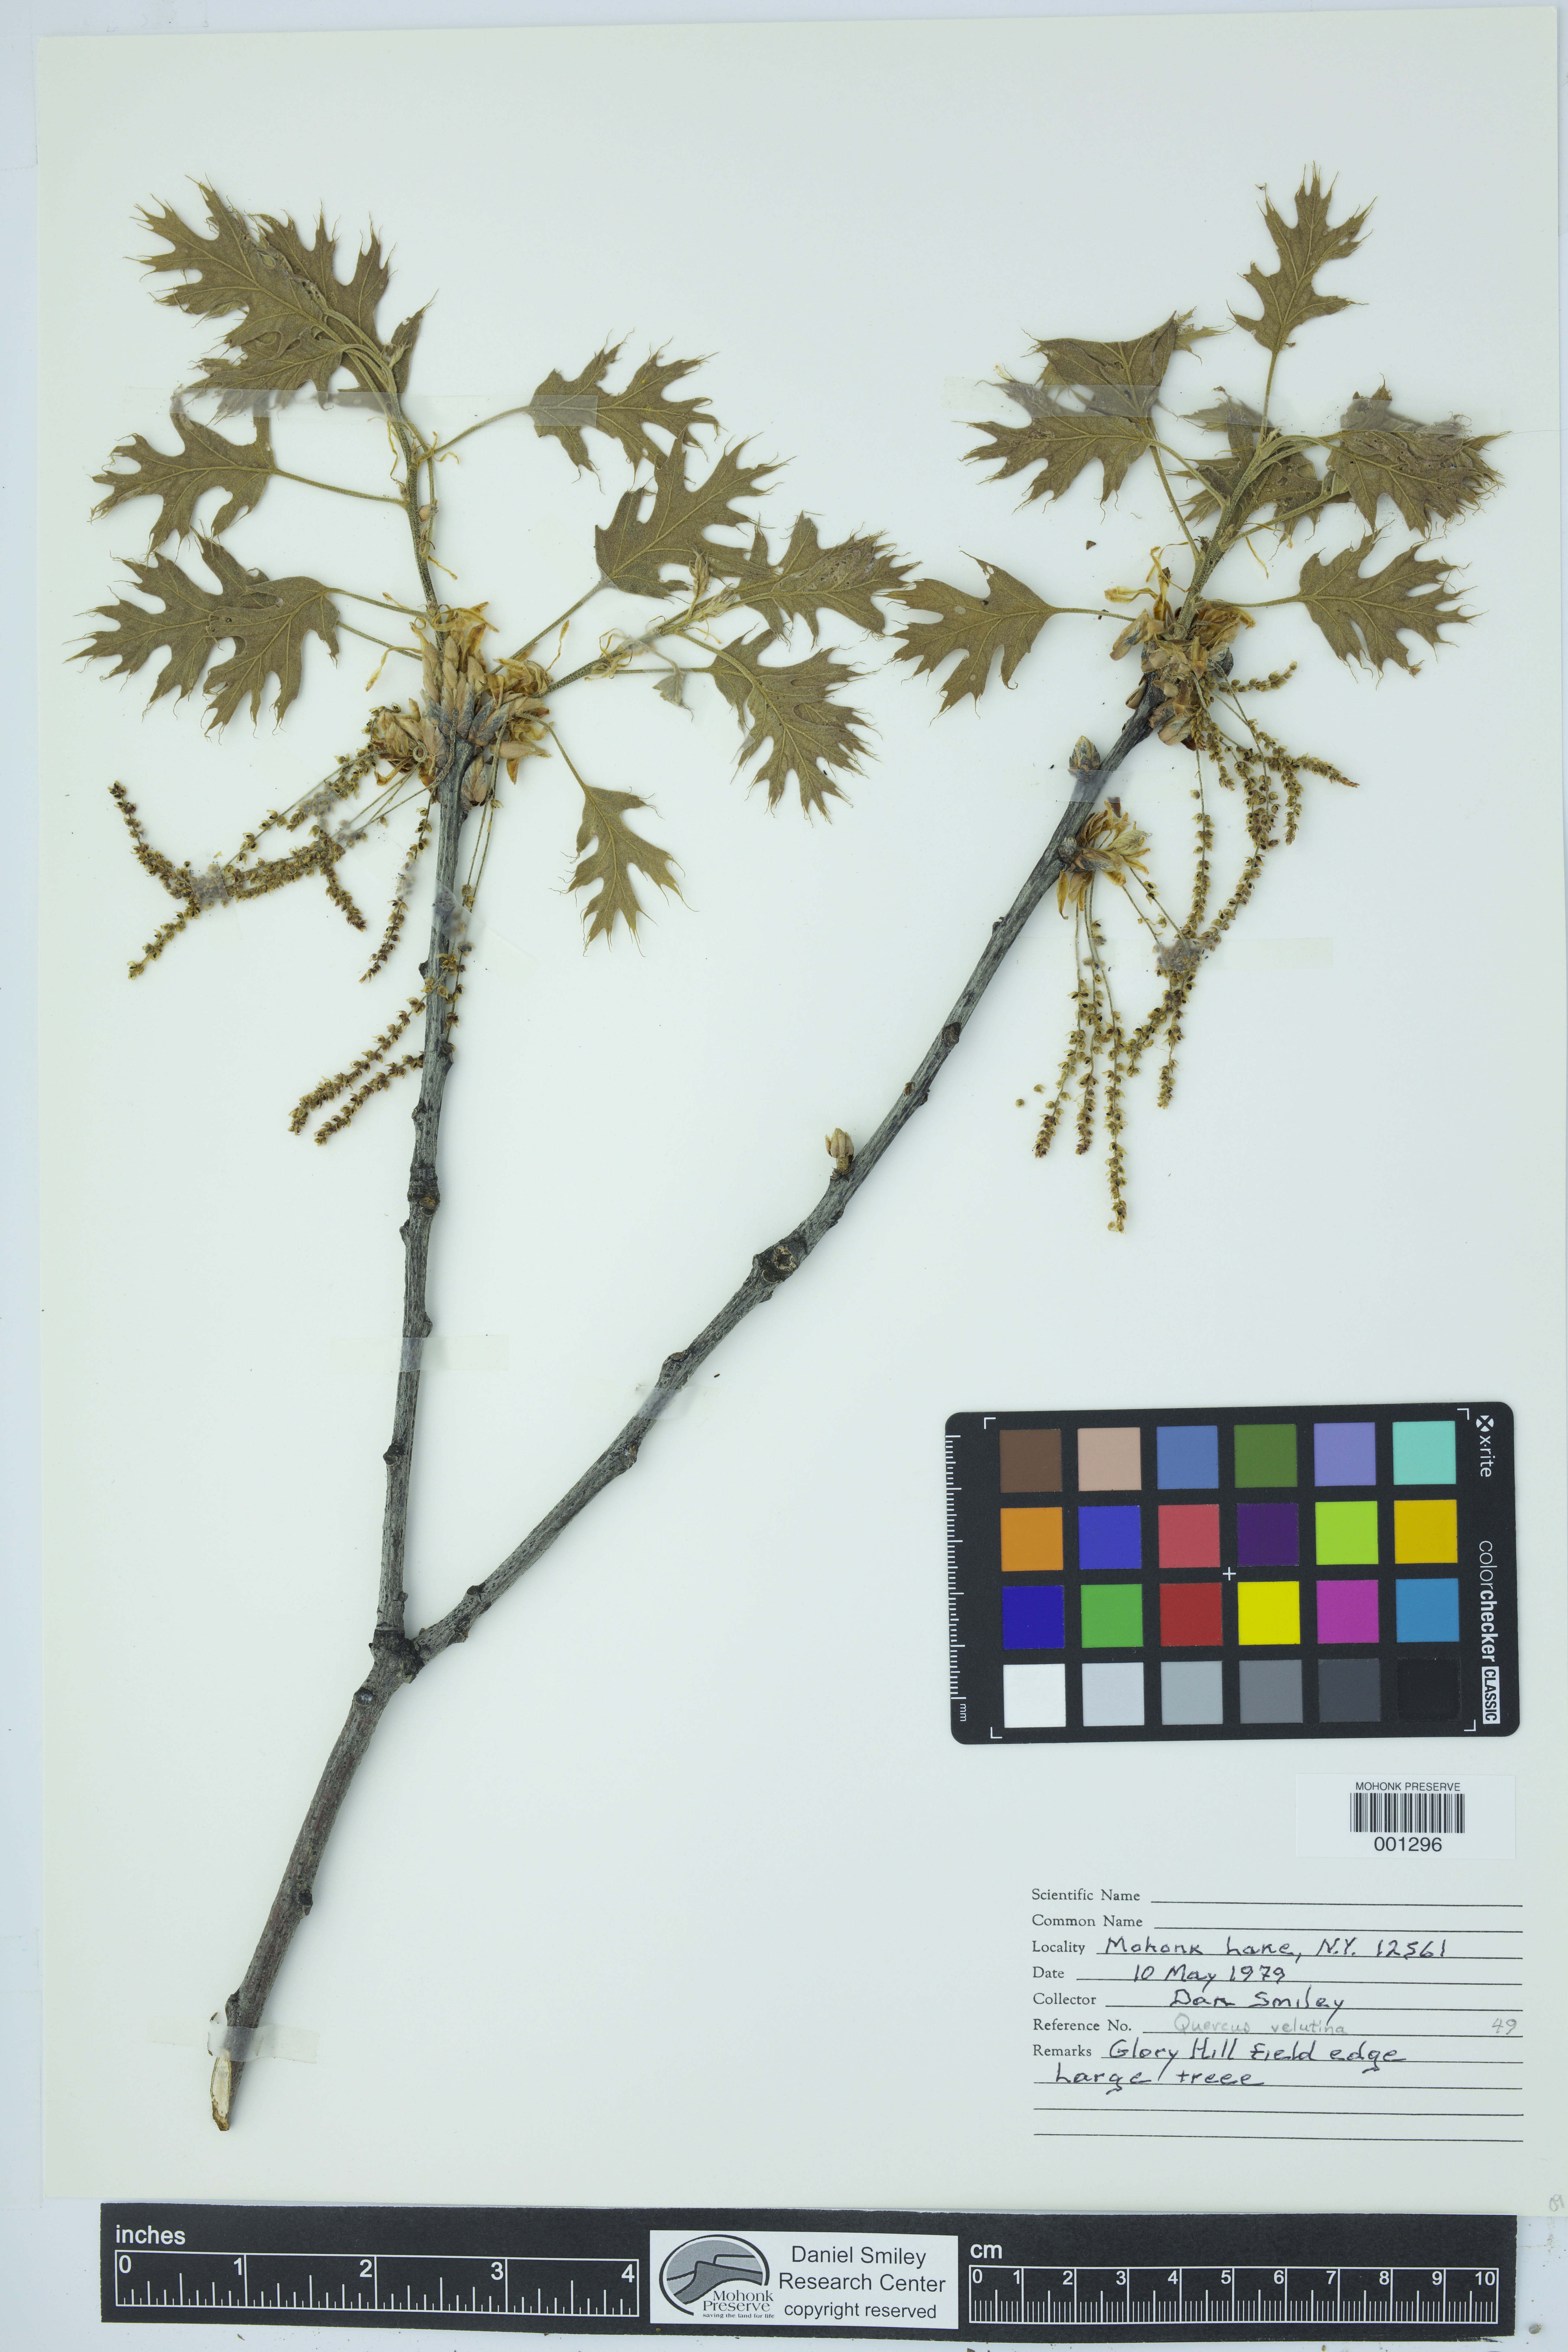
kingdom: Plantae
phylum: Tracheophyta
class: Magnoliopsida
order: Fagales
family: Fagaceae
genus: Quercus
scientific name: Quercus velutina
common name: Black oak
